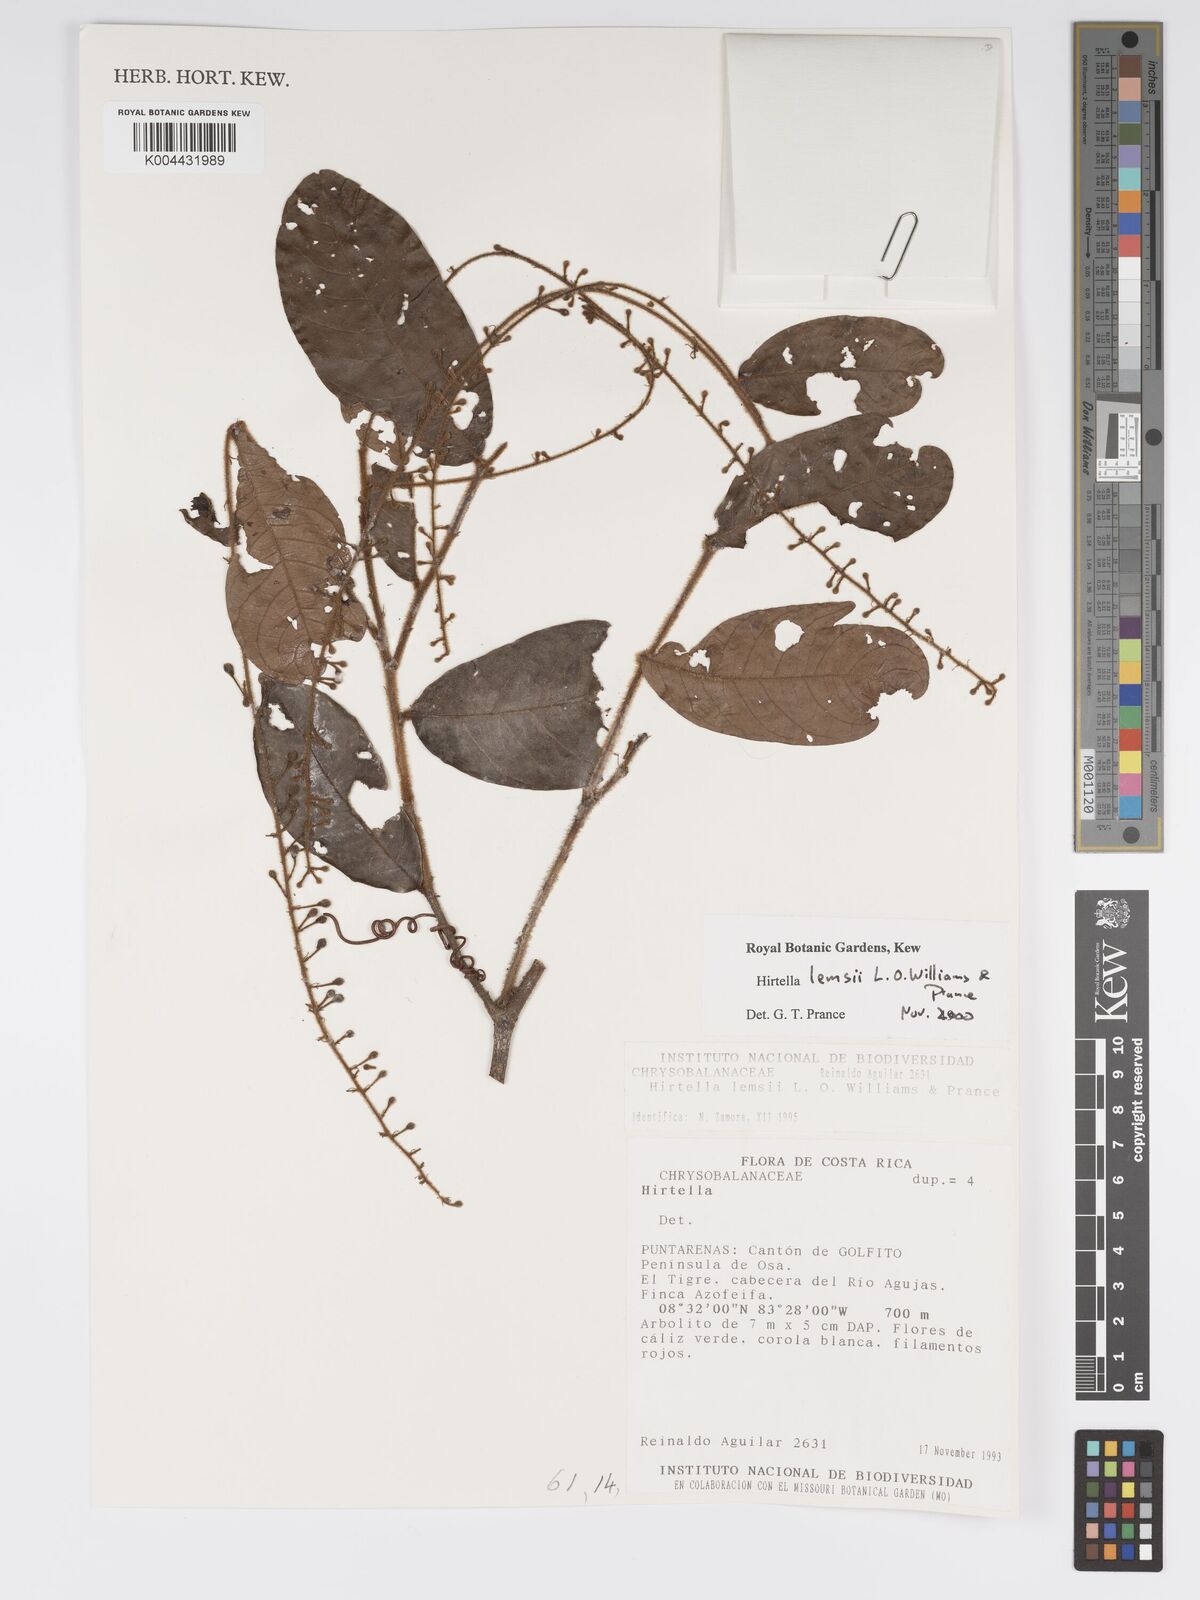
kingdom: Plantae
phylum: Tracheophyta
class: Magnoliopsida
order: Malpighiales
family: Chrysobalanaceae
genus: Hirtella
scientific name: Hirtella lemsii
